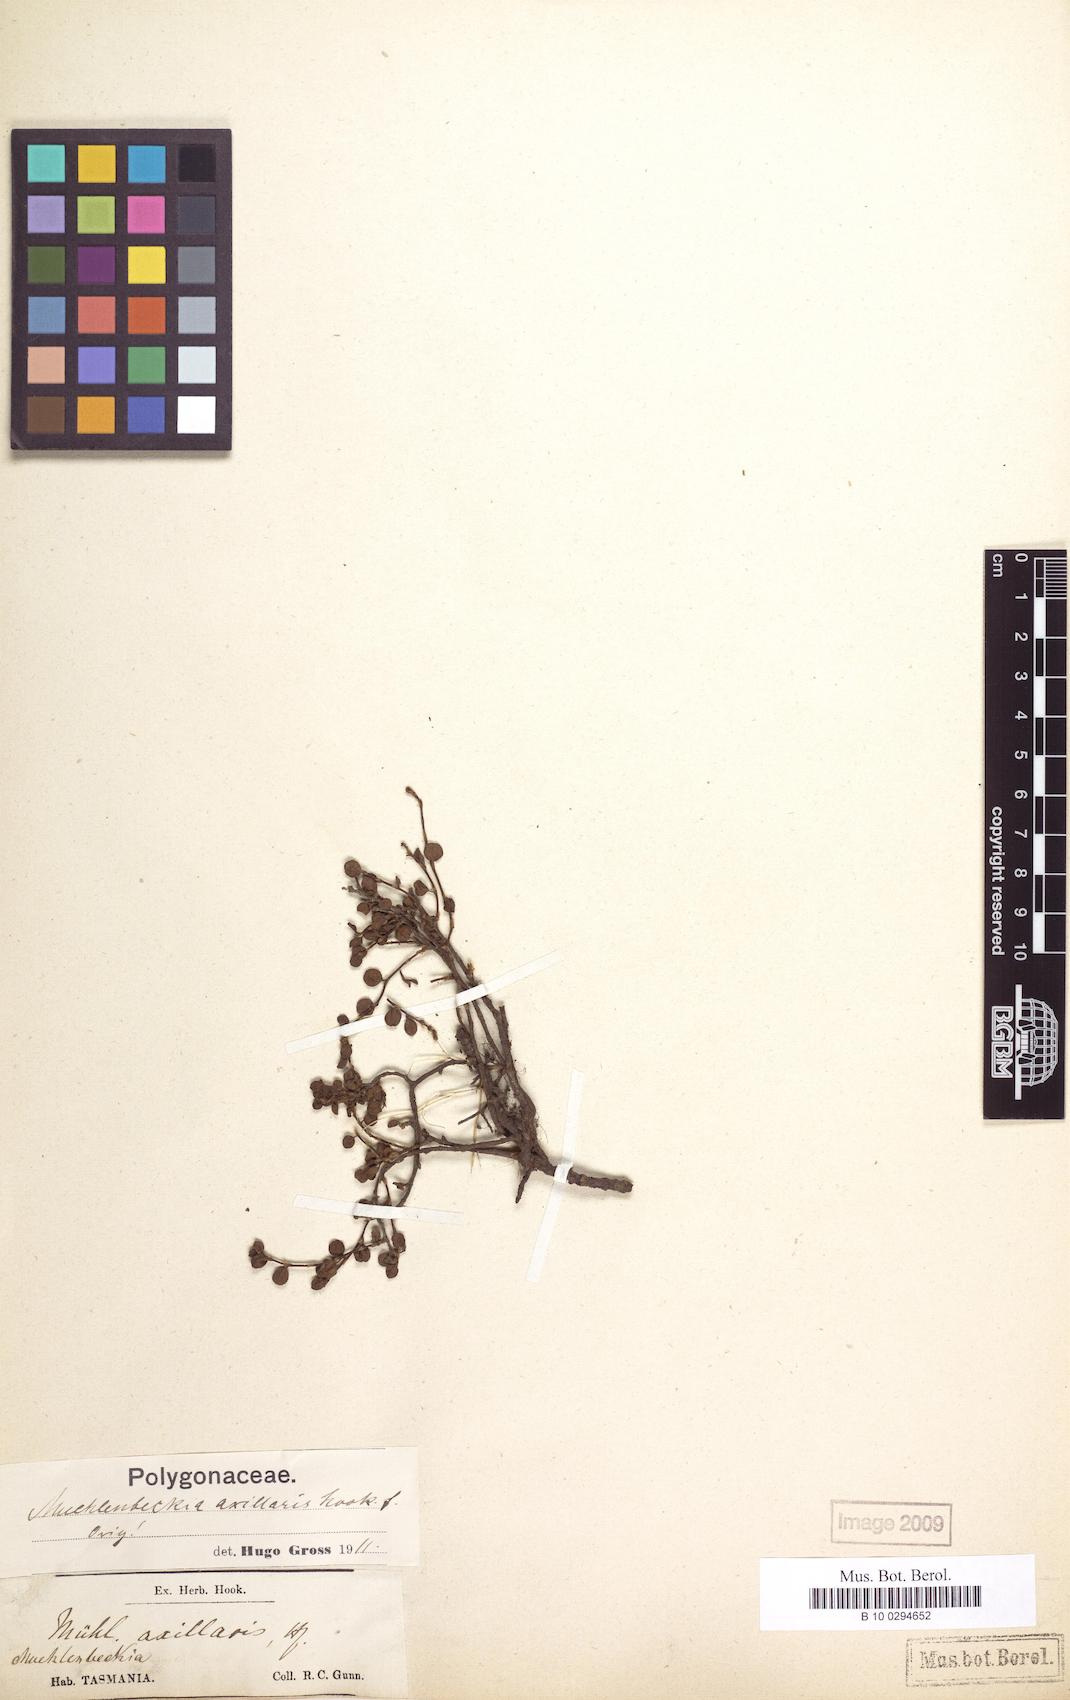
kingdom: Plantae
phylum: Tracheophyta
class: Magnoliopsida
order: Caryophyllales
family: Polygonaceae
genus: Muehlenbeckia
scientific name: Muehlenbeckia axillaris
